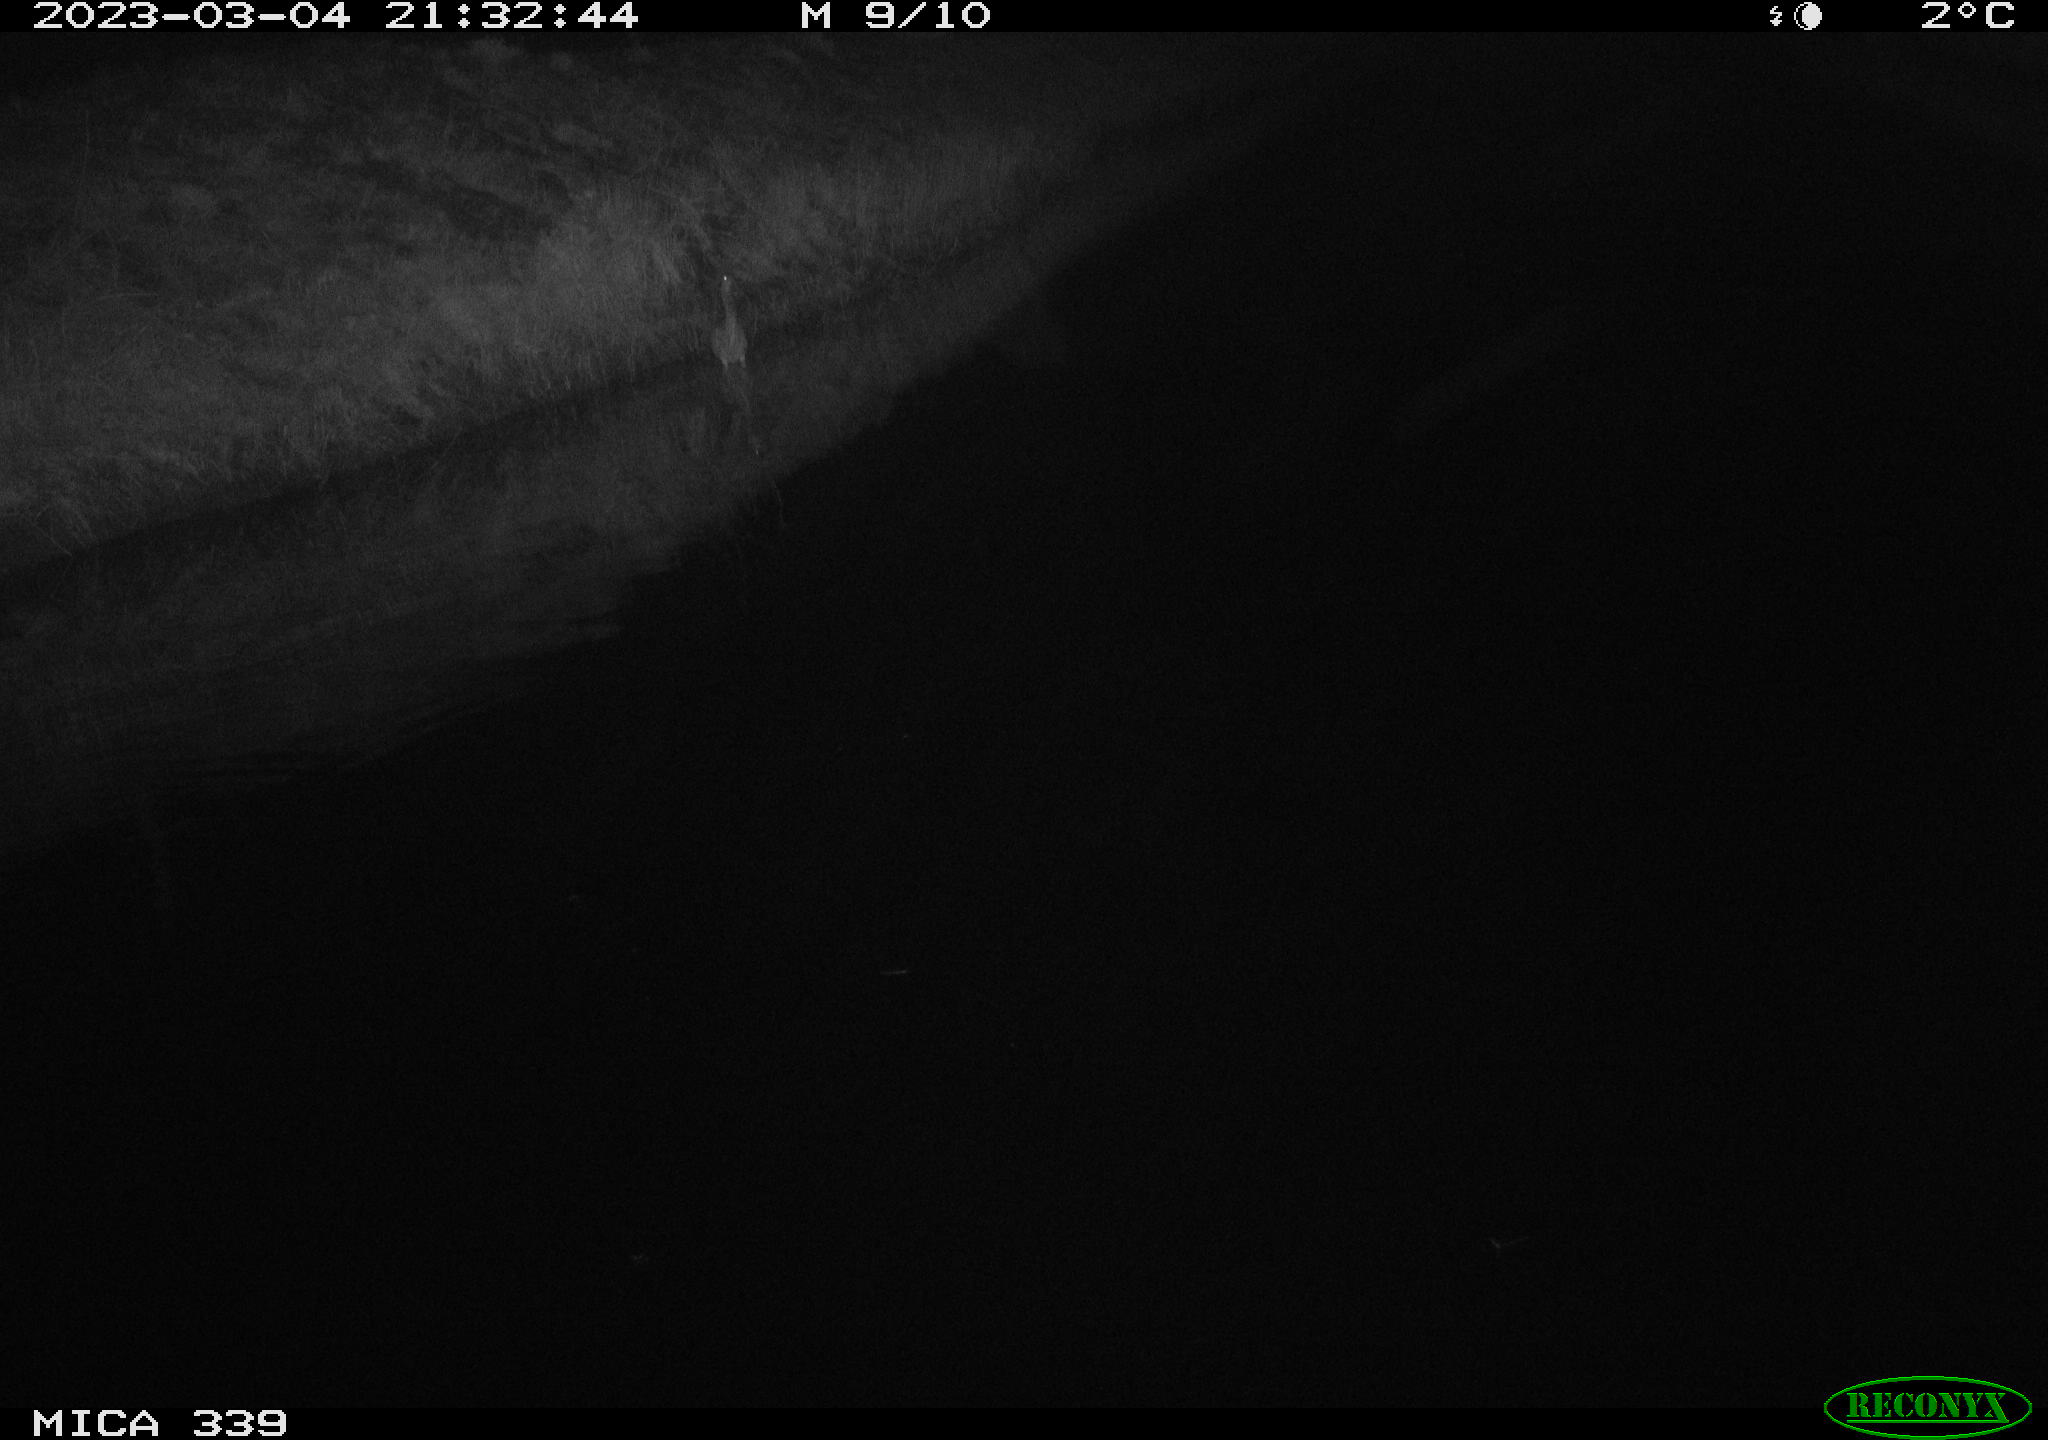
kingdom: Animalia
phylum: Chordata
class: Aves
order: Pelecaniformes
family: Ardeidae
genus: Ardea
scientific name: Ardea cinerea
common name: Grey heron
